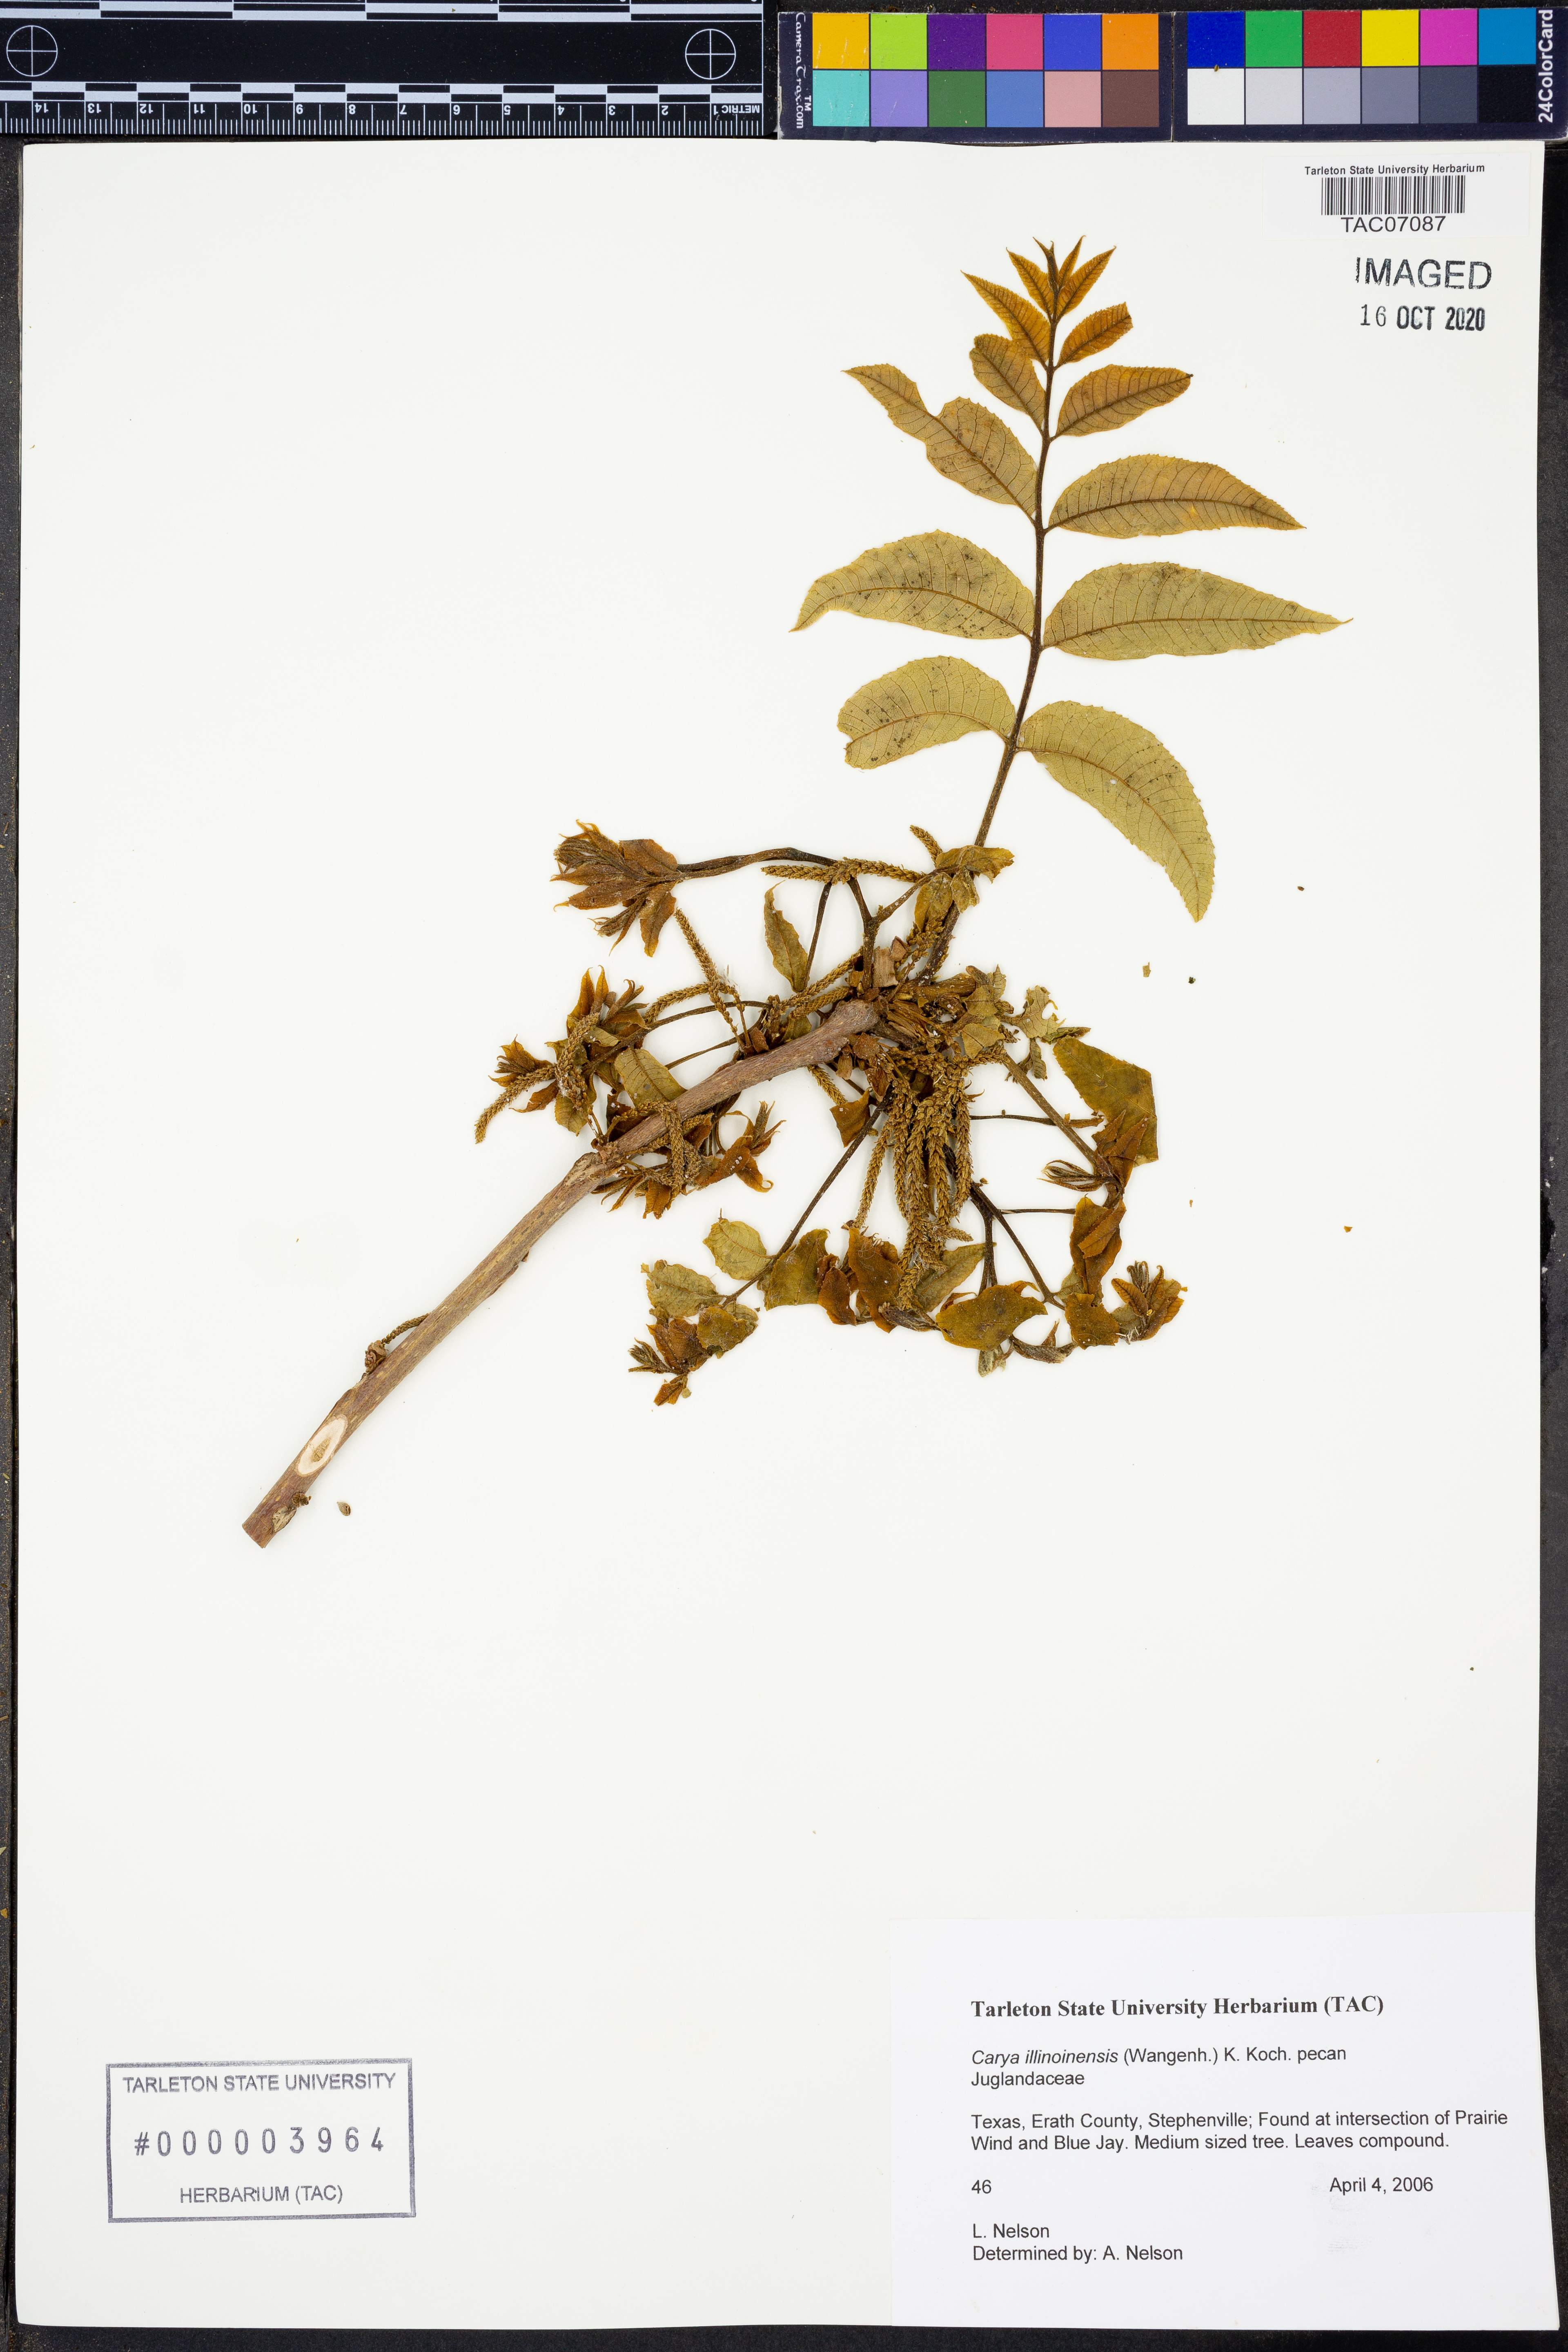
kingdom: Plantae
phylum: Tracheophyta
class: Magnoliopsida
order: Fagales
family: Juglandaceae
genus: Carya
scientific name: Carya illinoinensis
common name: Pecan
